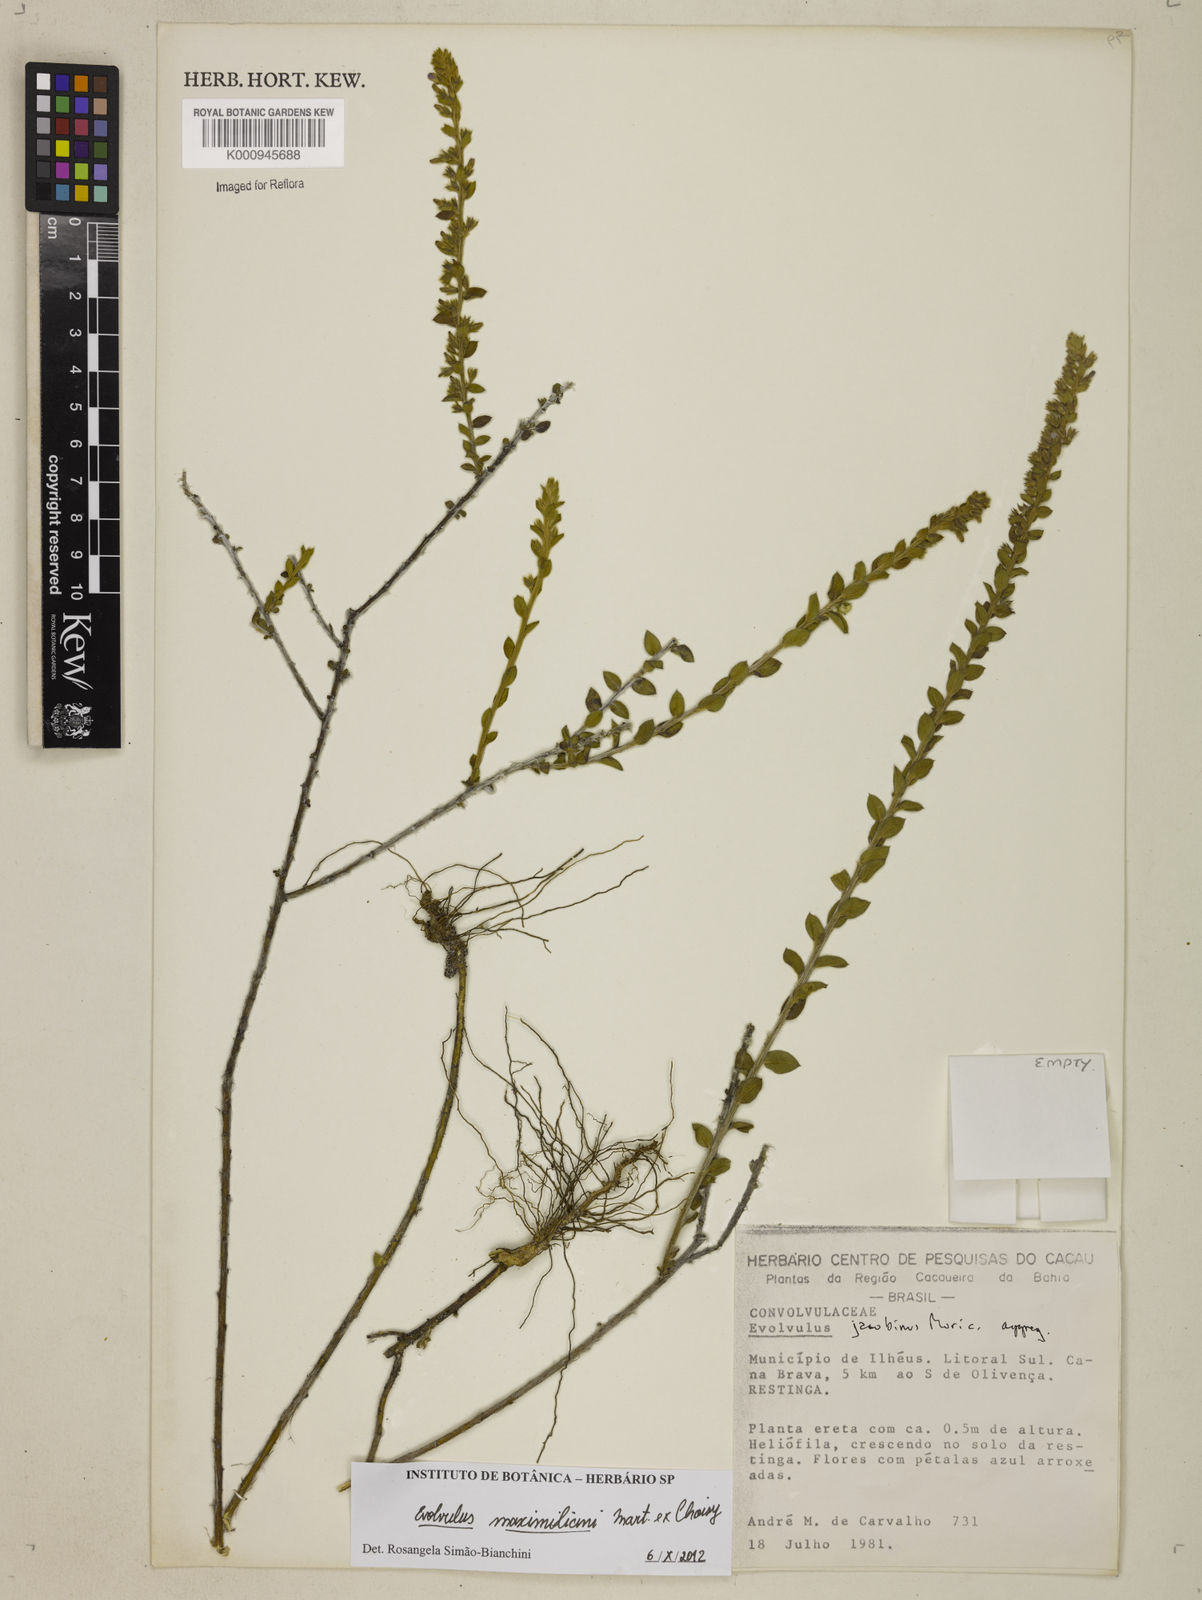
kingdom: Plantae
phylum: Tracheophyta
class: Magnoliopsida
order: Solanales
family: Convolvulaceae
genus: Evolvulus
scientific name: Evolvulus maximiliani
